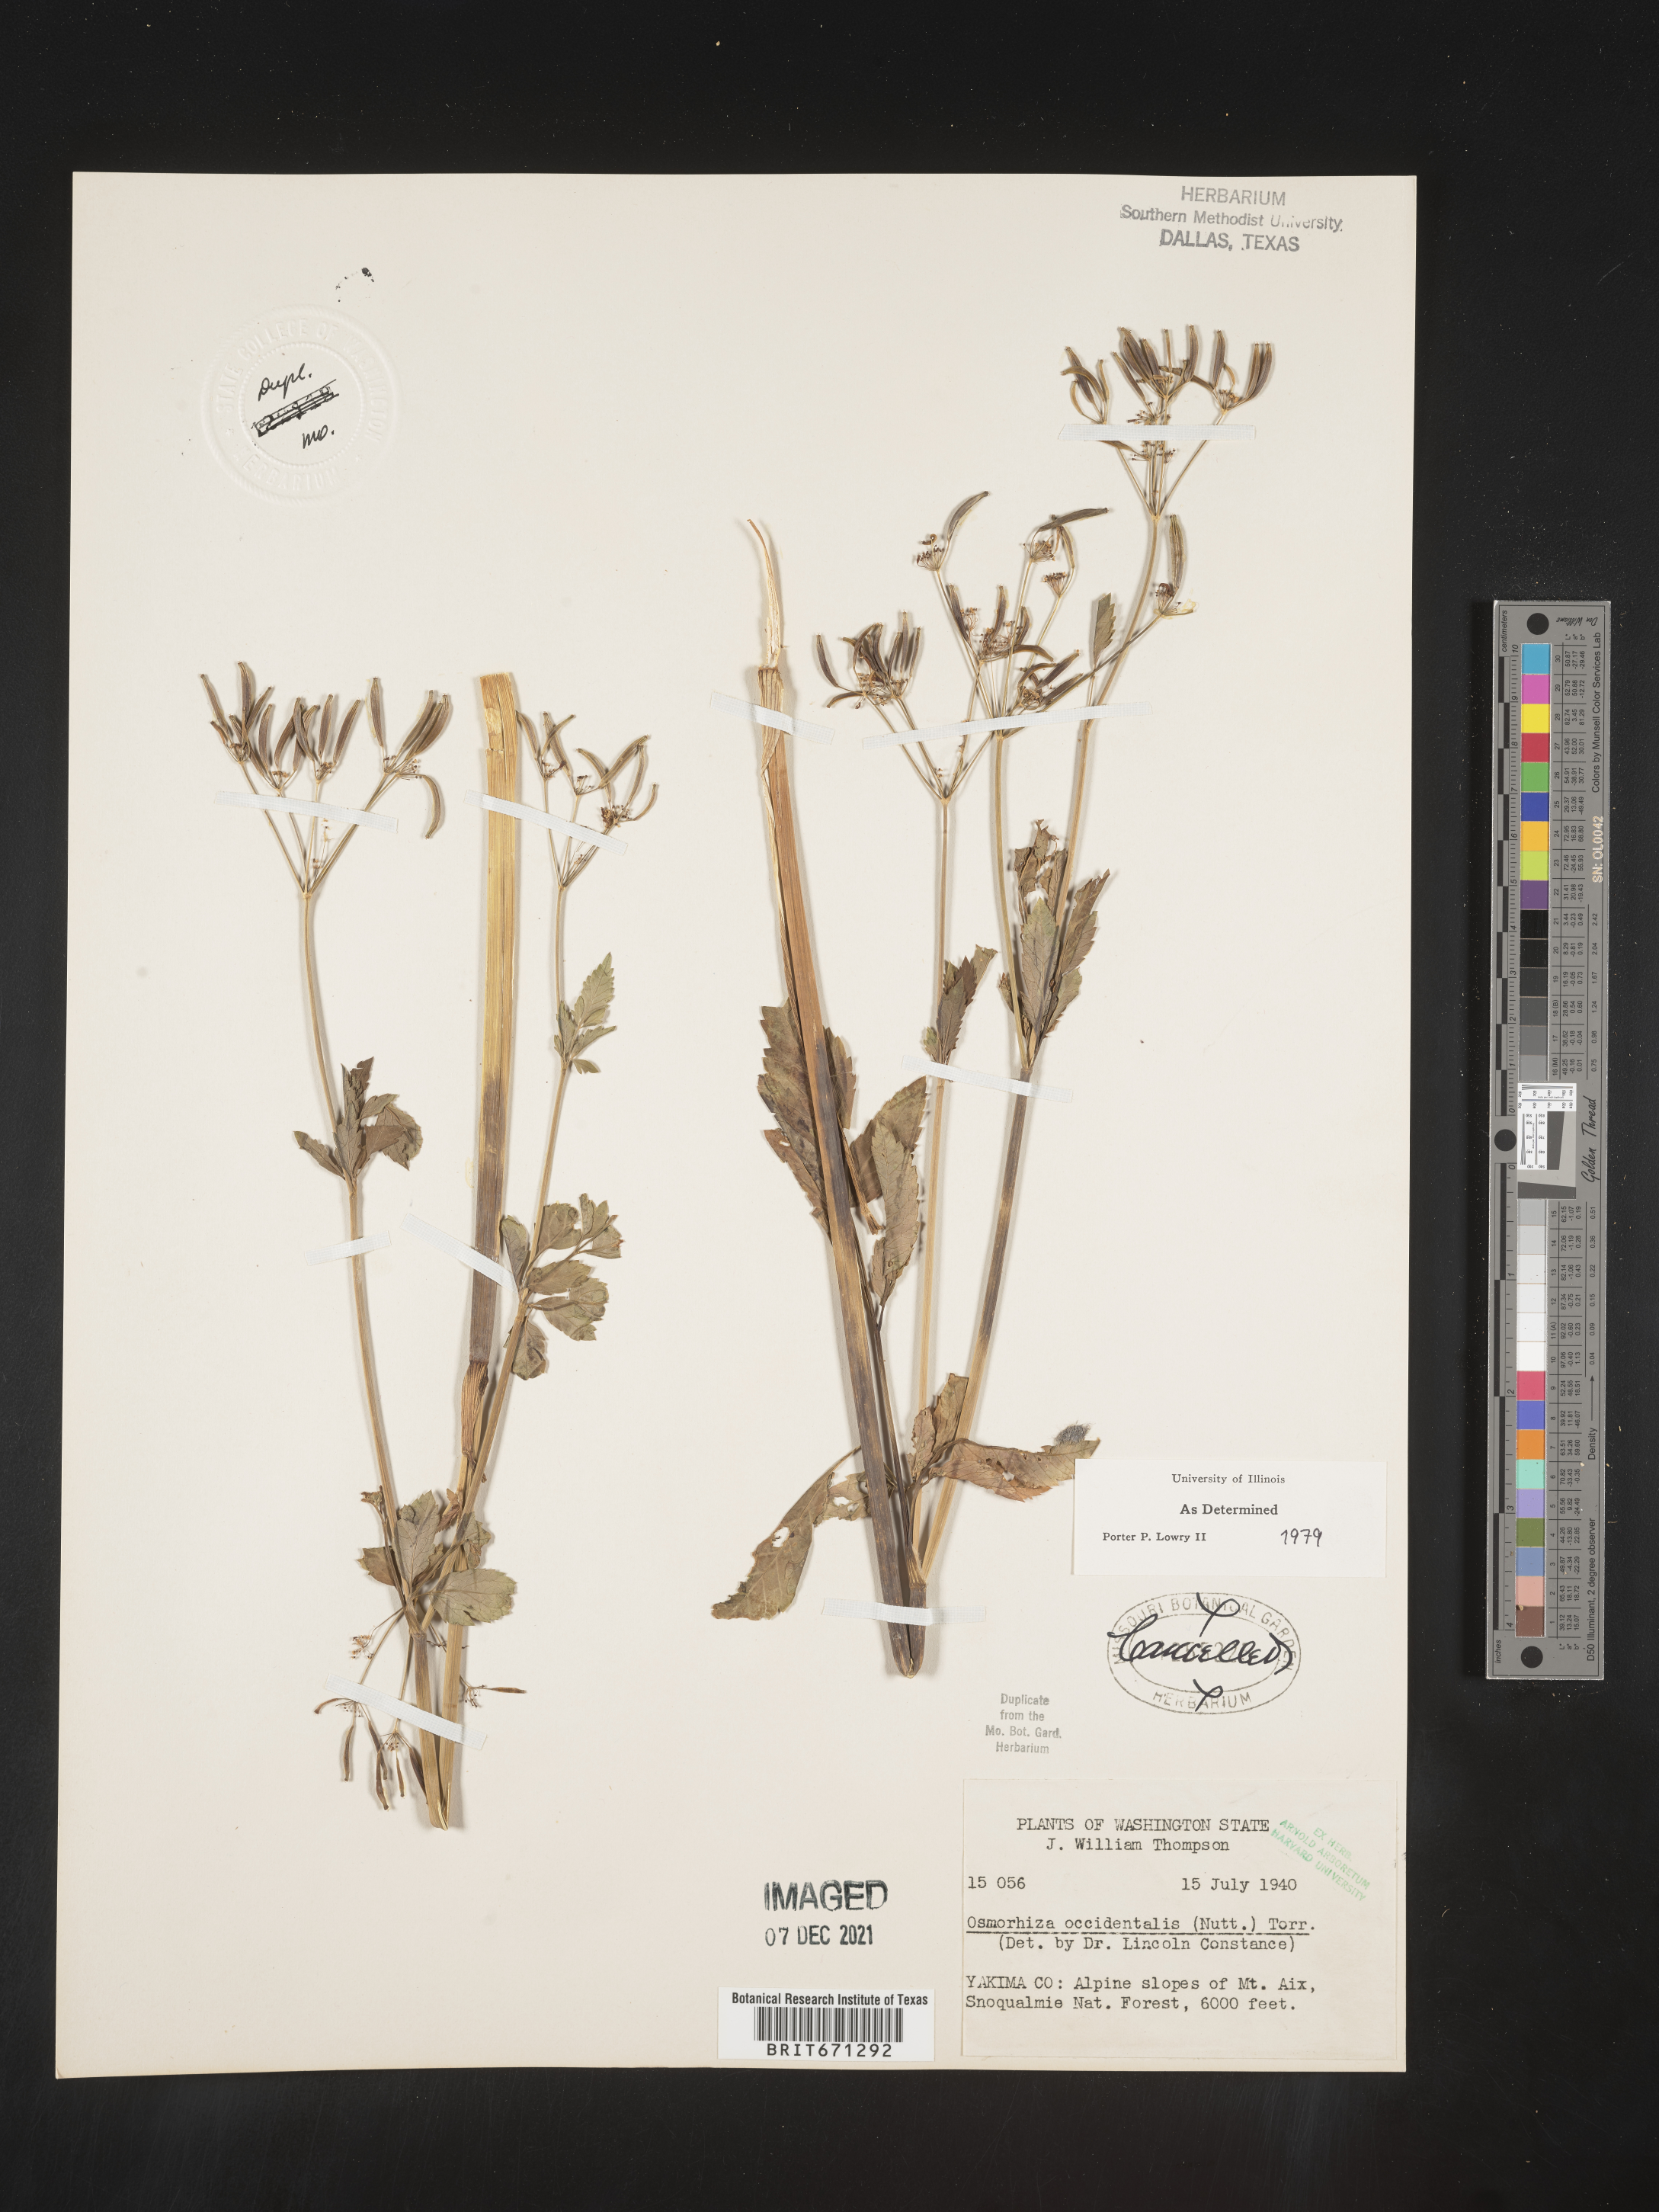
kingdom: Plantae
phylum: Tracheophyta
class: Magnoliopsida
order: Apiales
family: Apiaceae
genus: Osmorhiza
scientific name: Osmorhiza occidentalis
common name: Western sweet cicely
